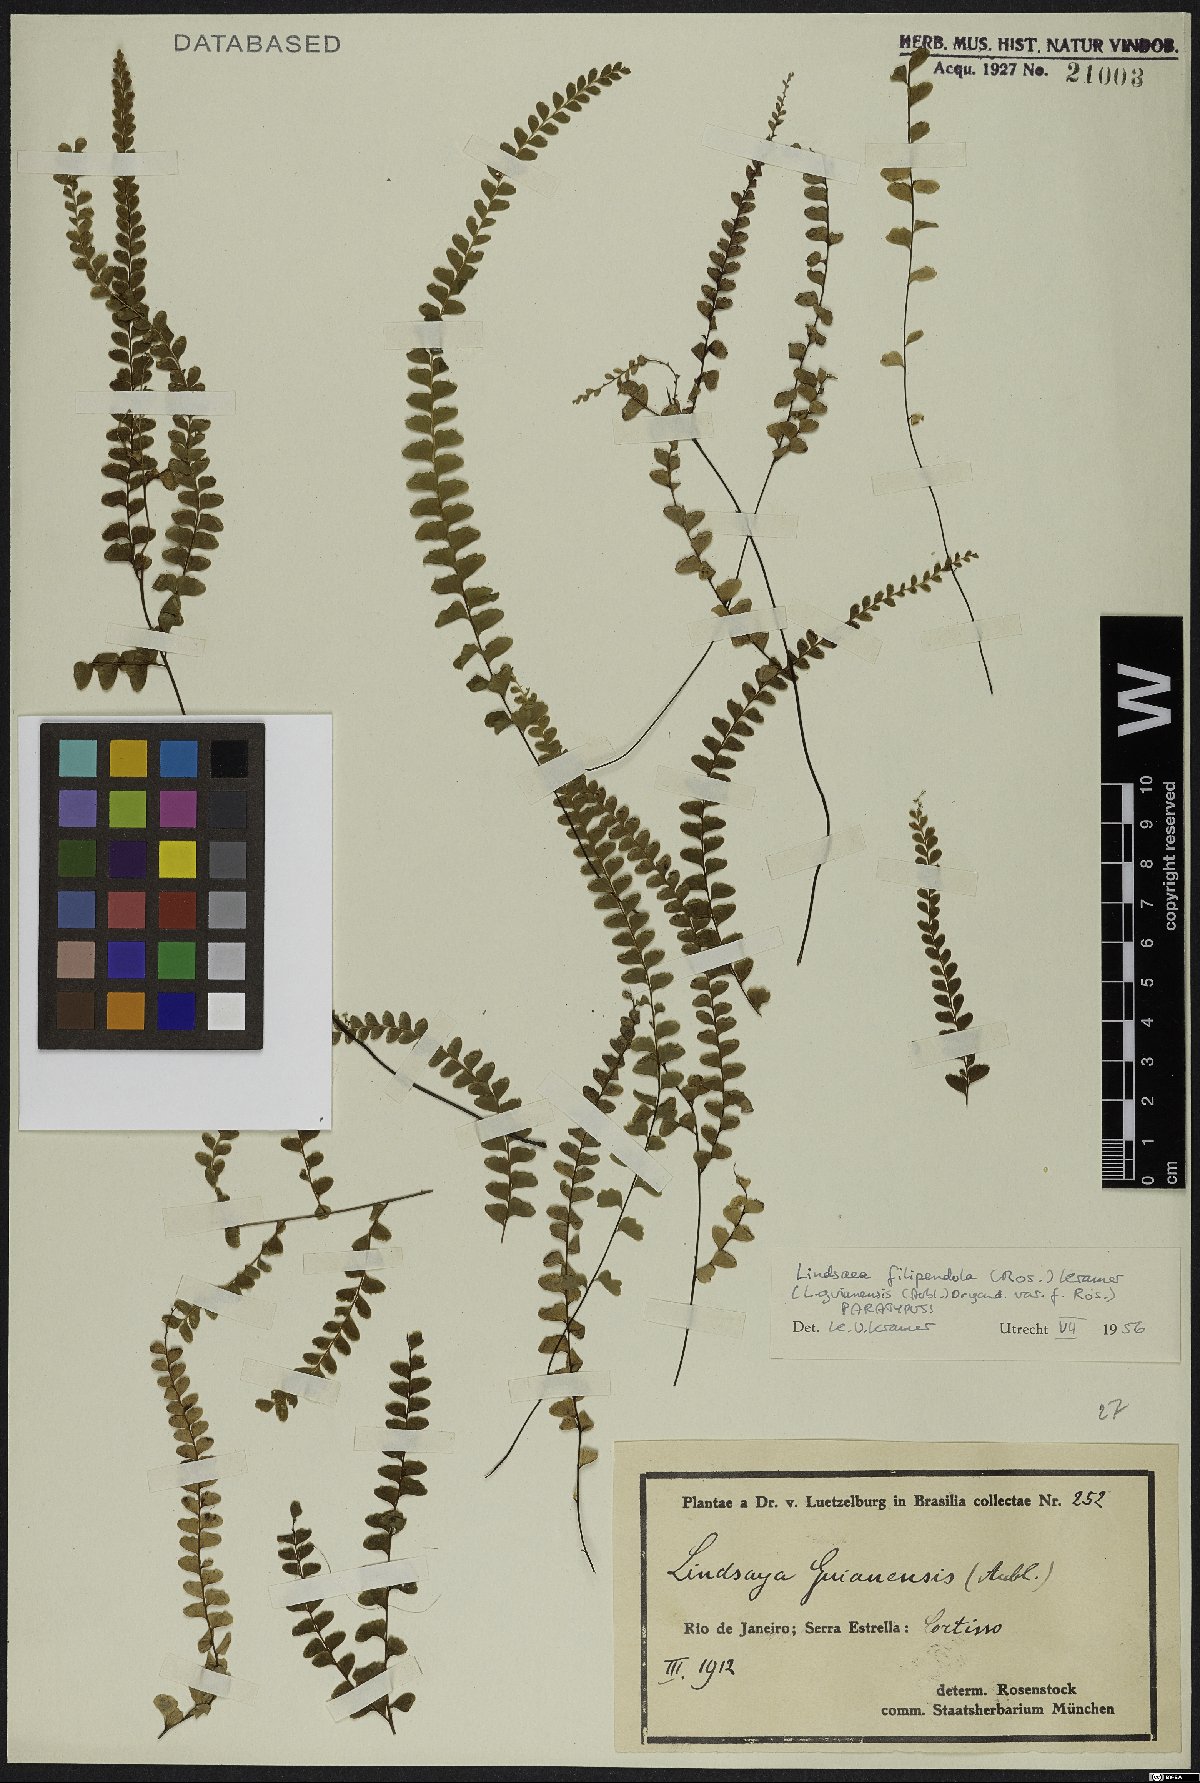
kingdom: Plantae
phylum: Tracheophyta
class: Polypodiopsida
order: Polypodiales
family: Lindsaeaceae
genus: Lindsaea
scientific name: Lindsaea filipendula
